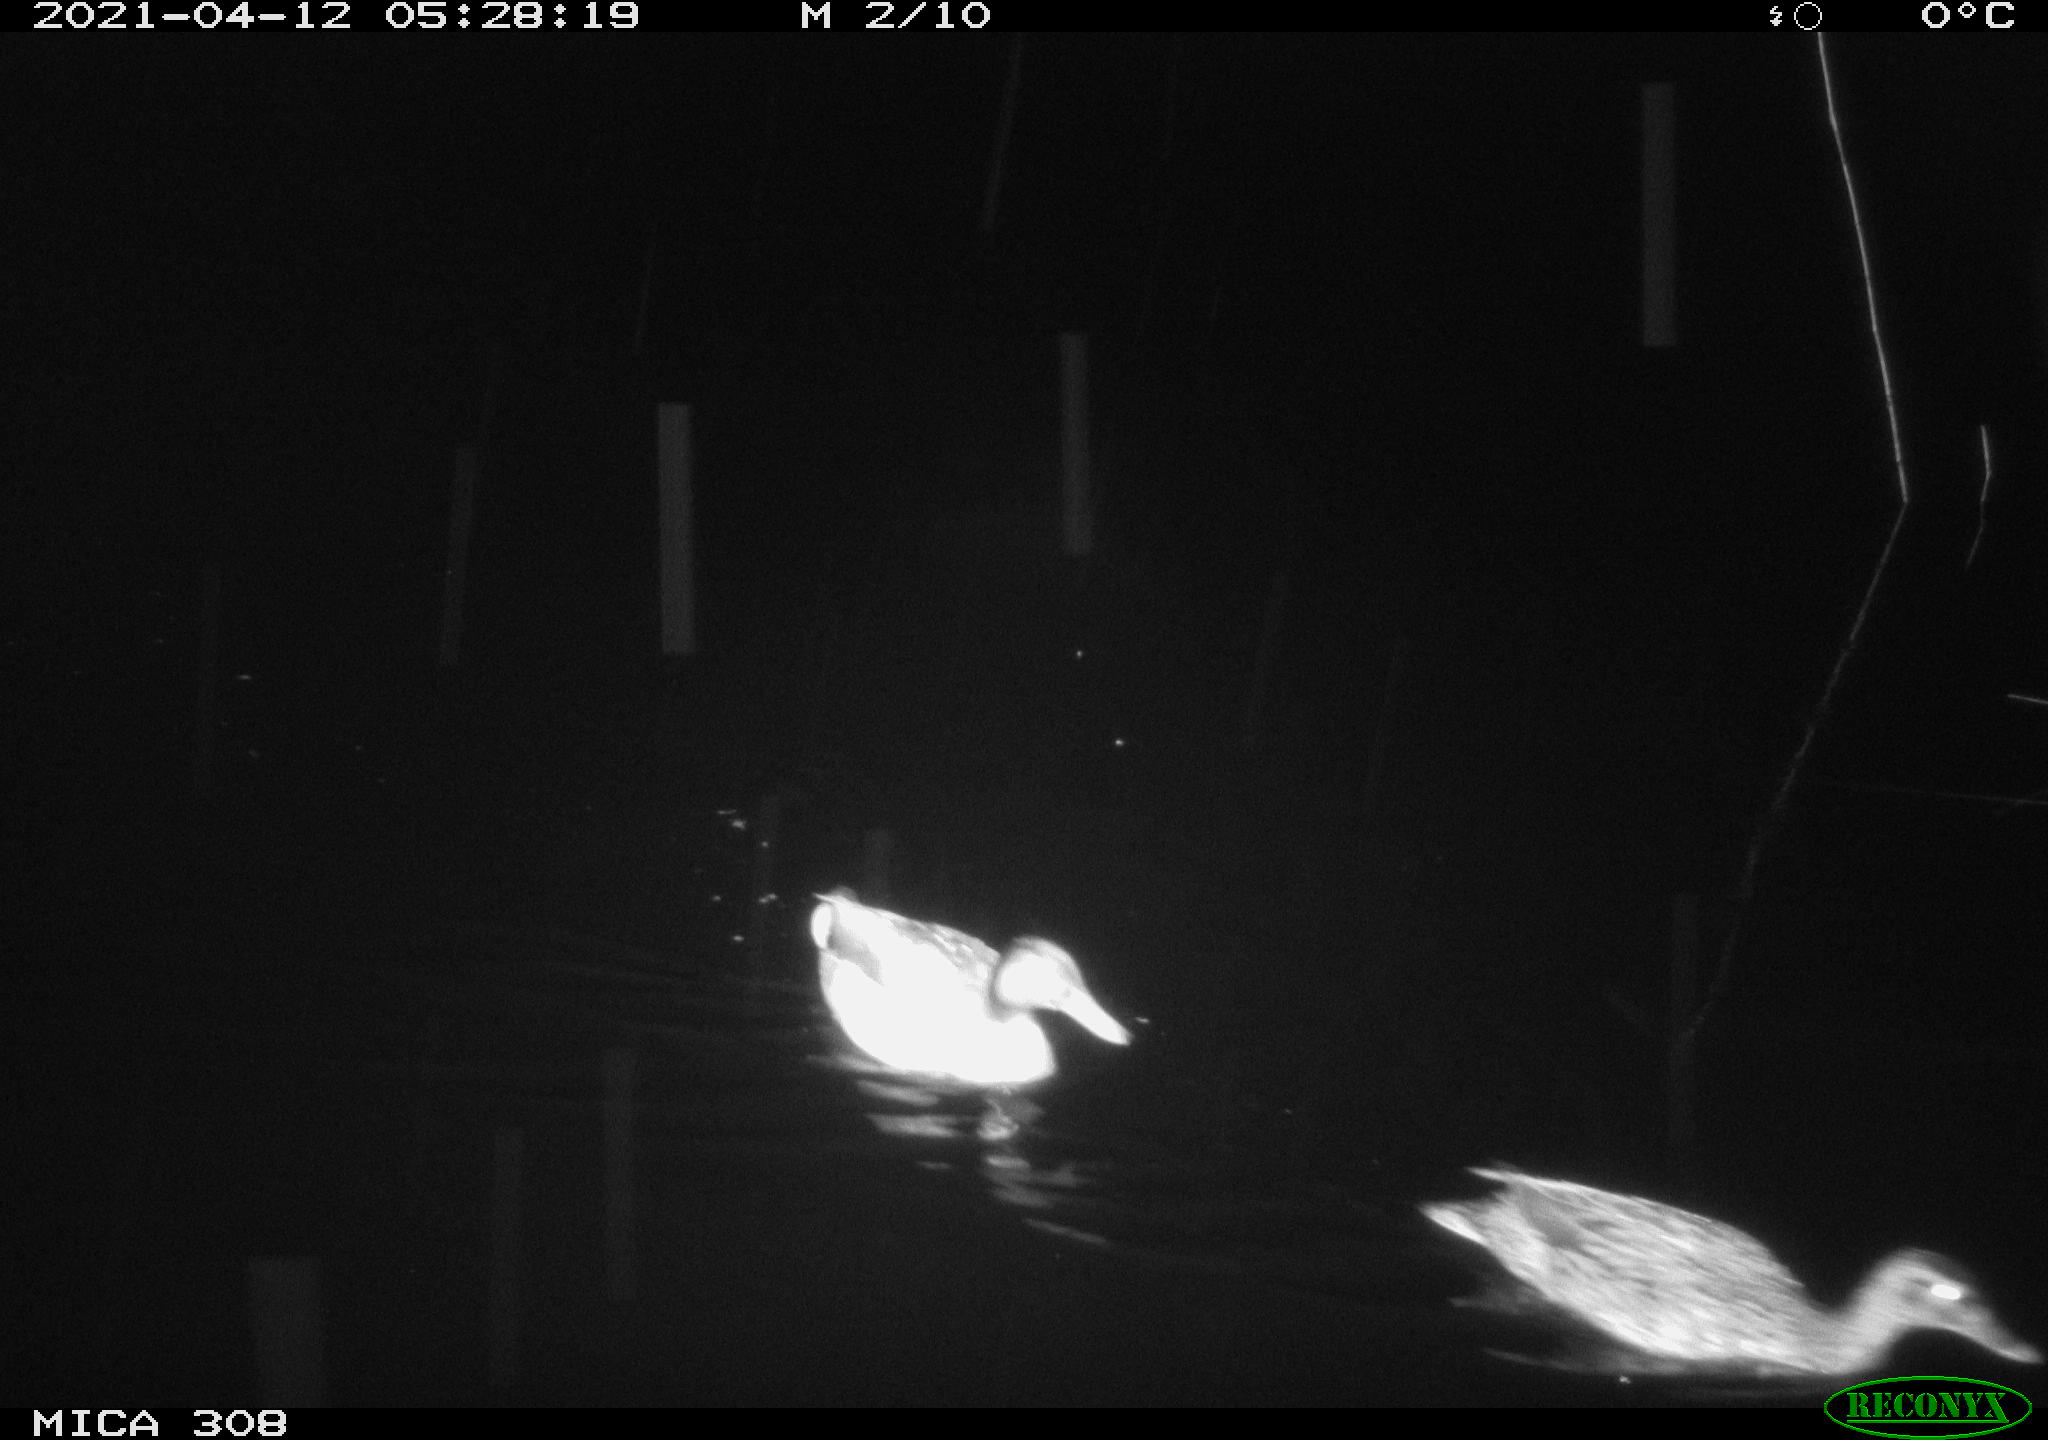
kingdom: Animalia
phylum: Chordata
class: Aves
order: Anseriformes
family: Anatidae
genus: Anas
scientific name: Anas platyrhynchos
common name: Mallard
